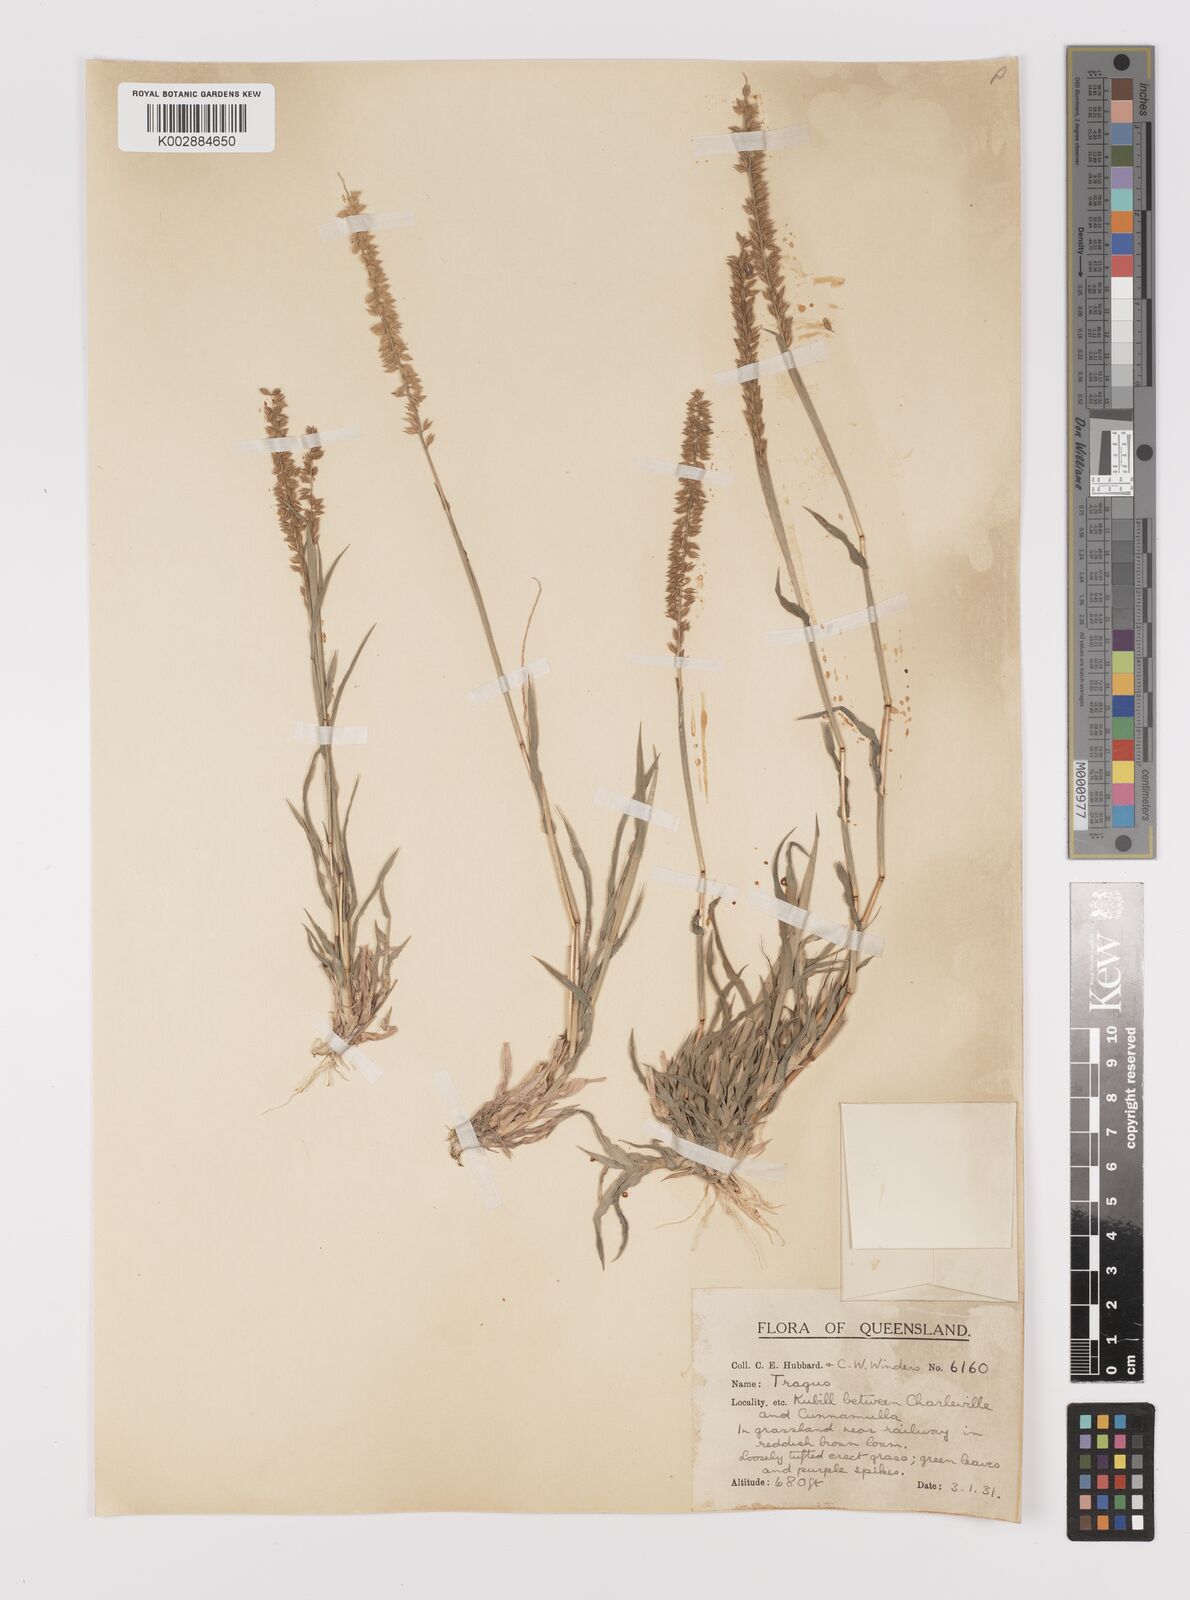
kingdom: Plantae
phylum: Tracheophyta
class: Liliopsida
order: Poales
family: Poaceae
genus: Tragus
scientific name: Tragus australianus
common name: Australian bur-grass
